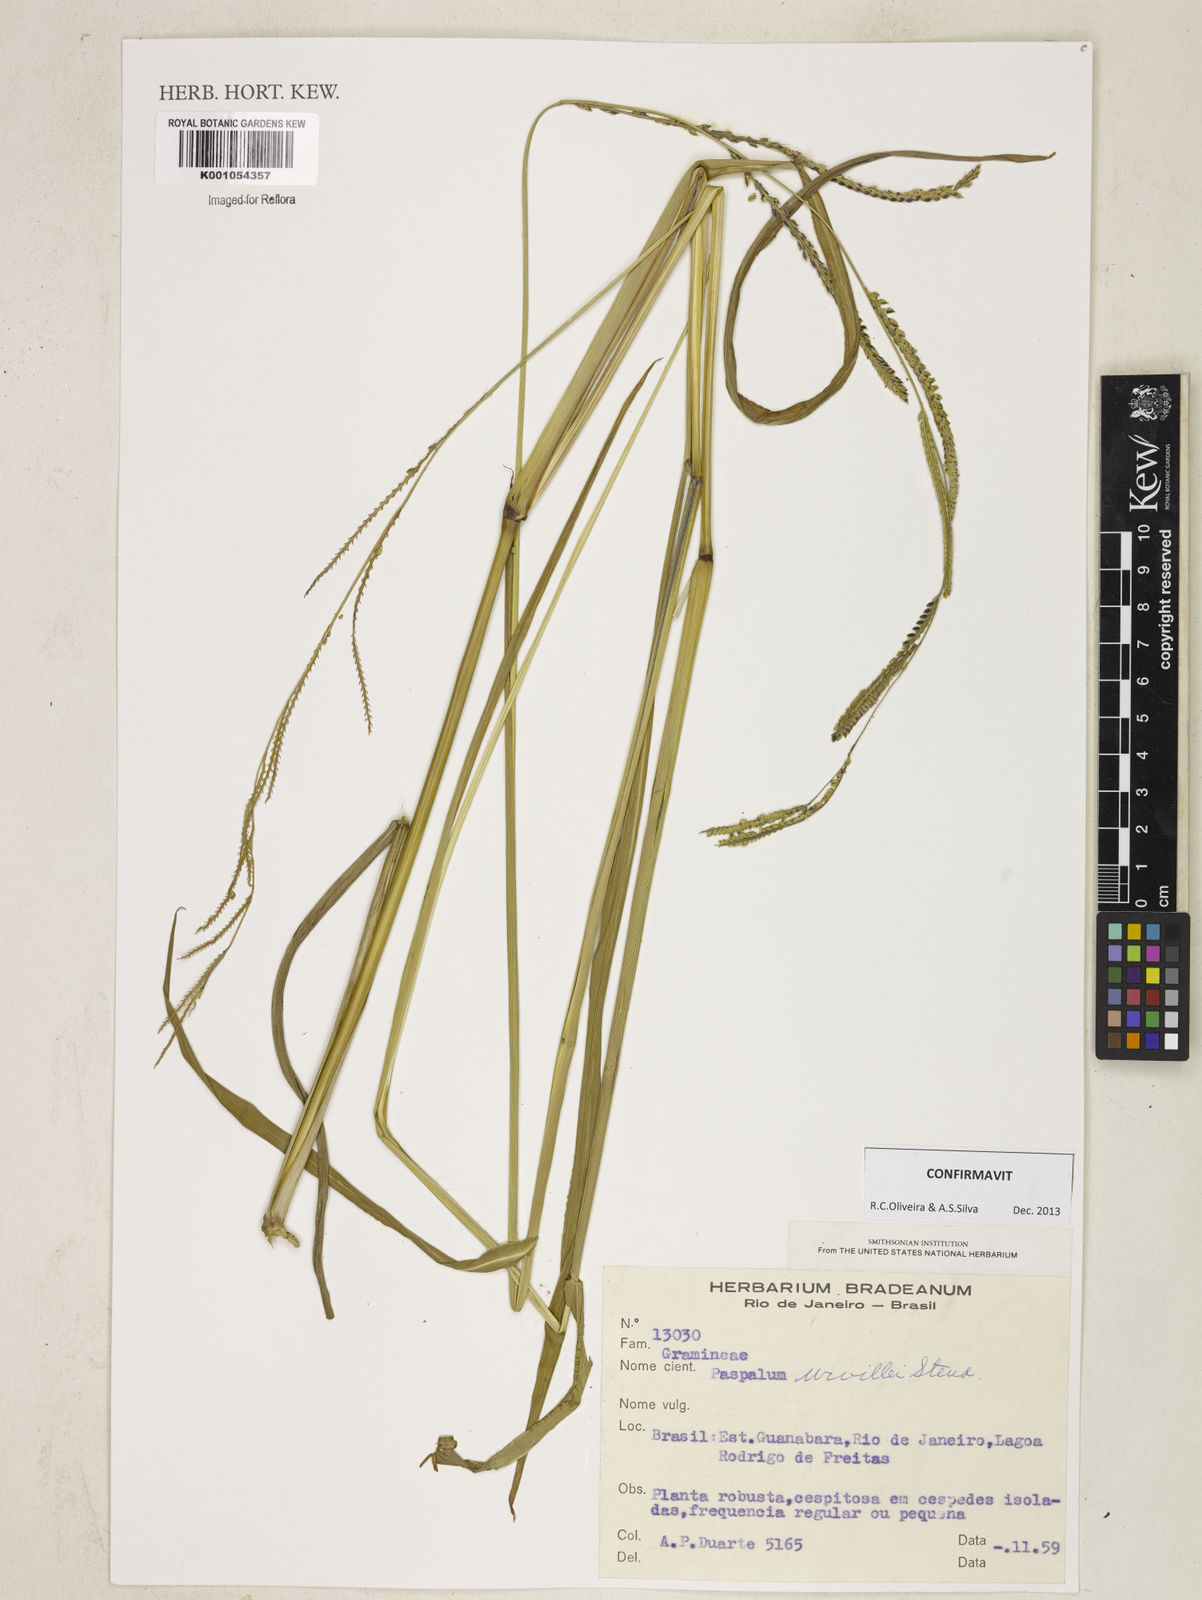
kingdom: Plantae
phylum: Tracheophyta
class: Liliopsida
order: Poales
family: Poaceae
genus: Paspalum
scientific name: Paspalum urvillei
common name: Vasey's grass
